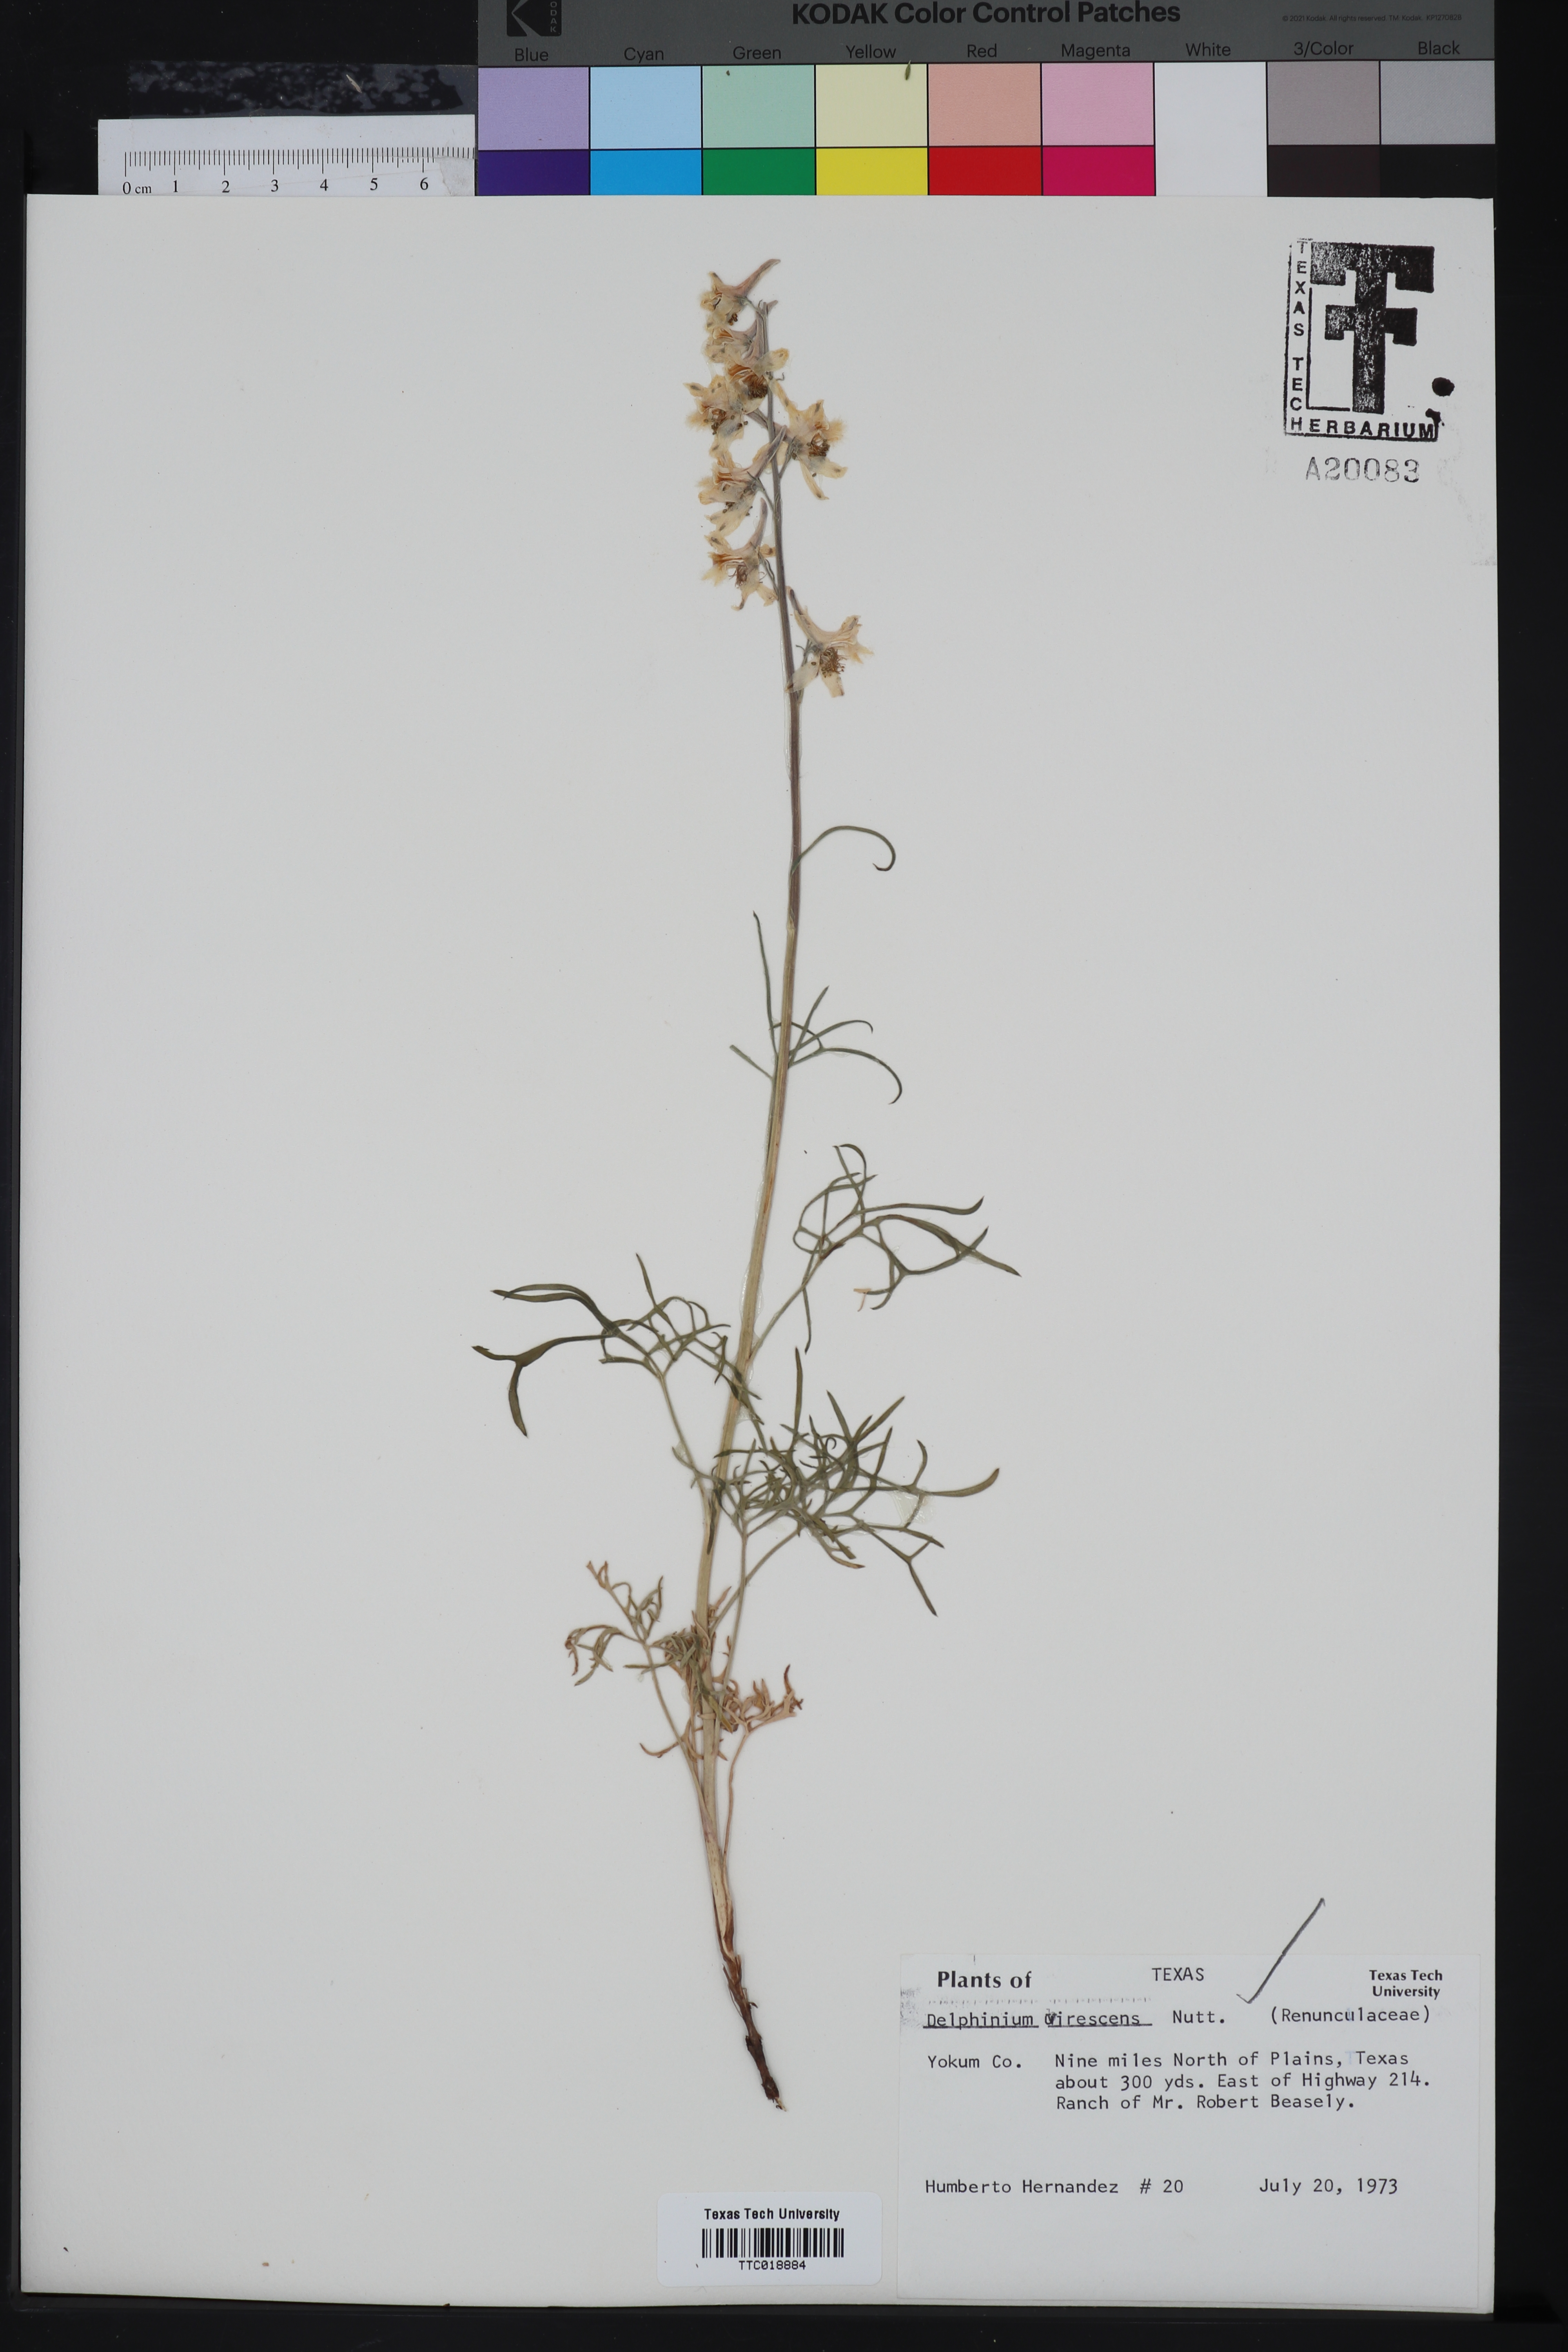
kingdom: Plantae
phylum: Tracheophyta
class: Magnoliopsida
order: Ranunculales
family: Ranunculaceae
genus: Delphinium
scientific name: Delphinium carolinianum
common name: Carolina larkspur
